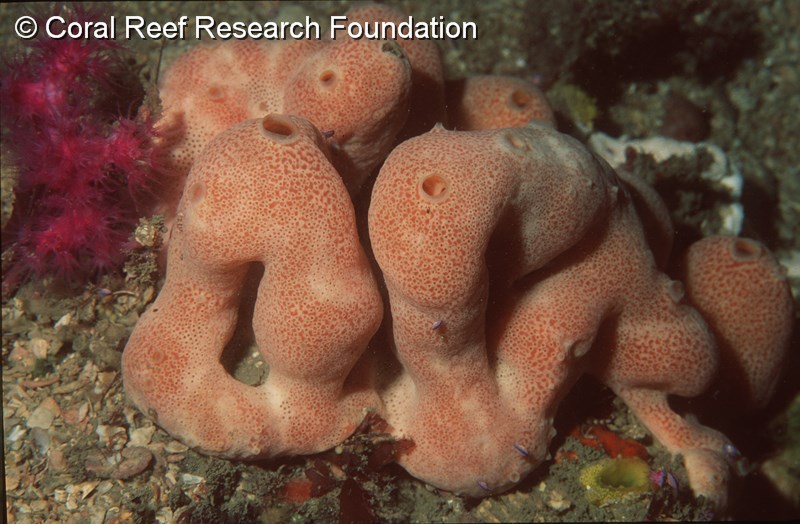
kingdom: Animalia
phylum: Chordata
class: Ascidiacea
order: Aplousobranchia
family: Didemnidae
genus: Atriolum
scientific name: Atriolum
